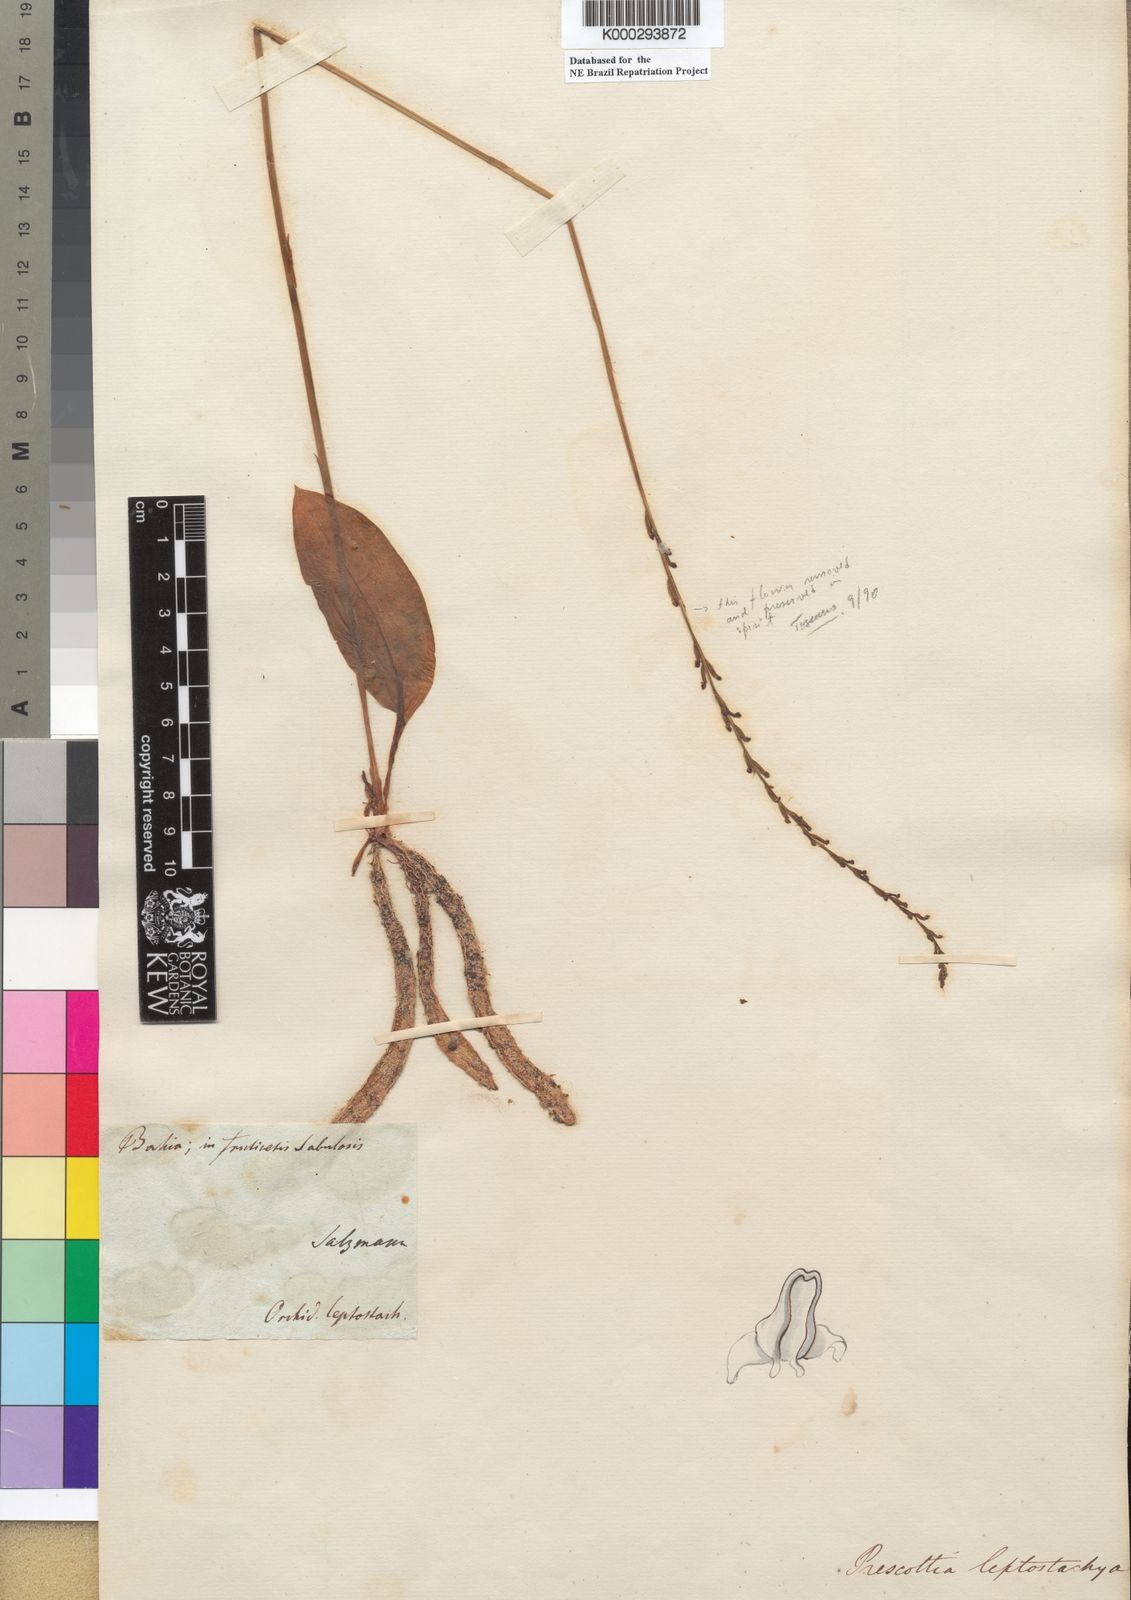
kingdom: Plantae
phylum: Tracheophyta
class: Liliopsida
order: Asparagales
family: Orchidaceae
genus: Prescottia
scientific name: Prescottia leptostachya
